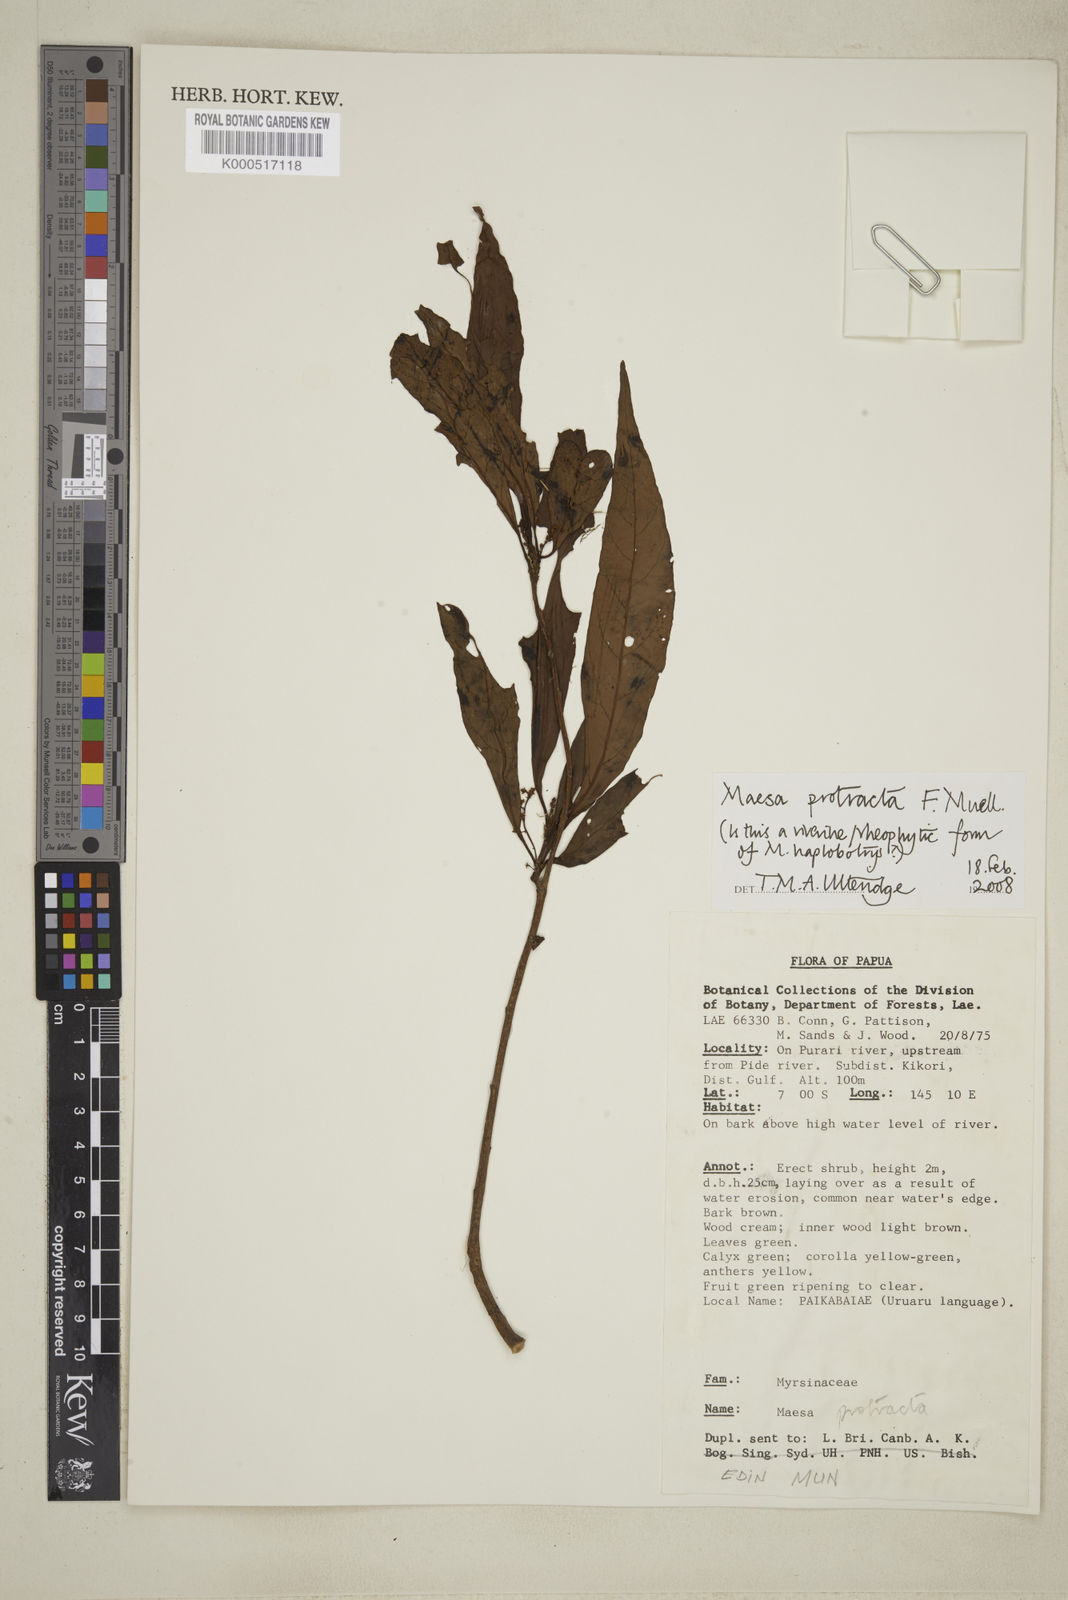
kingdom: Plantae
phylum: Tracheophyta
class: Magnoliopsida
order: Ericales
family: Primulaceae
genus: Maesa
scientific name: Maesa protracta
